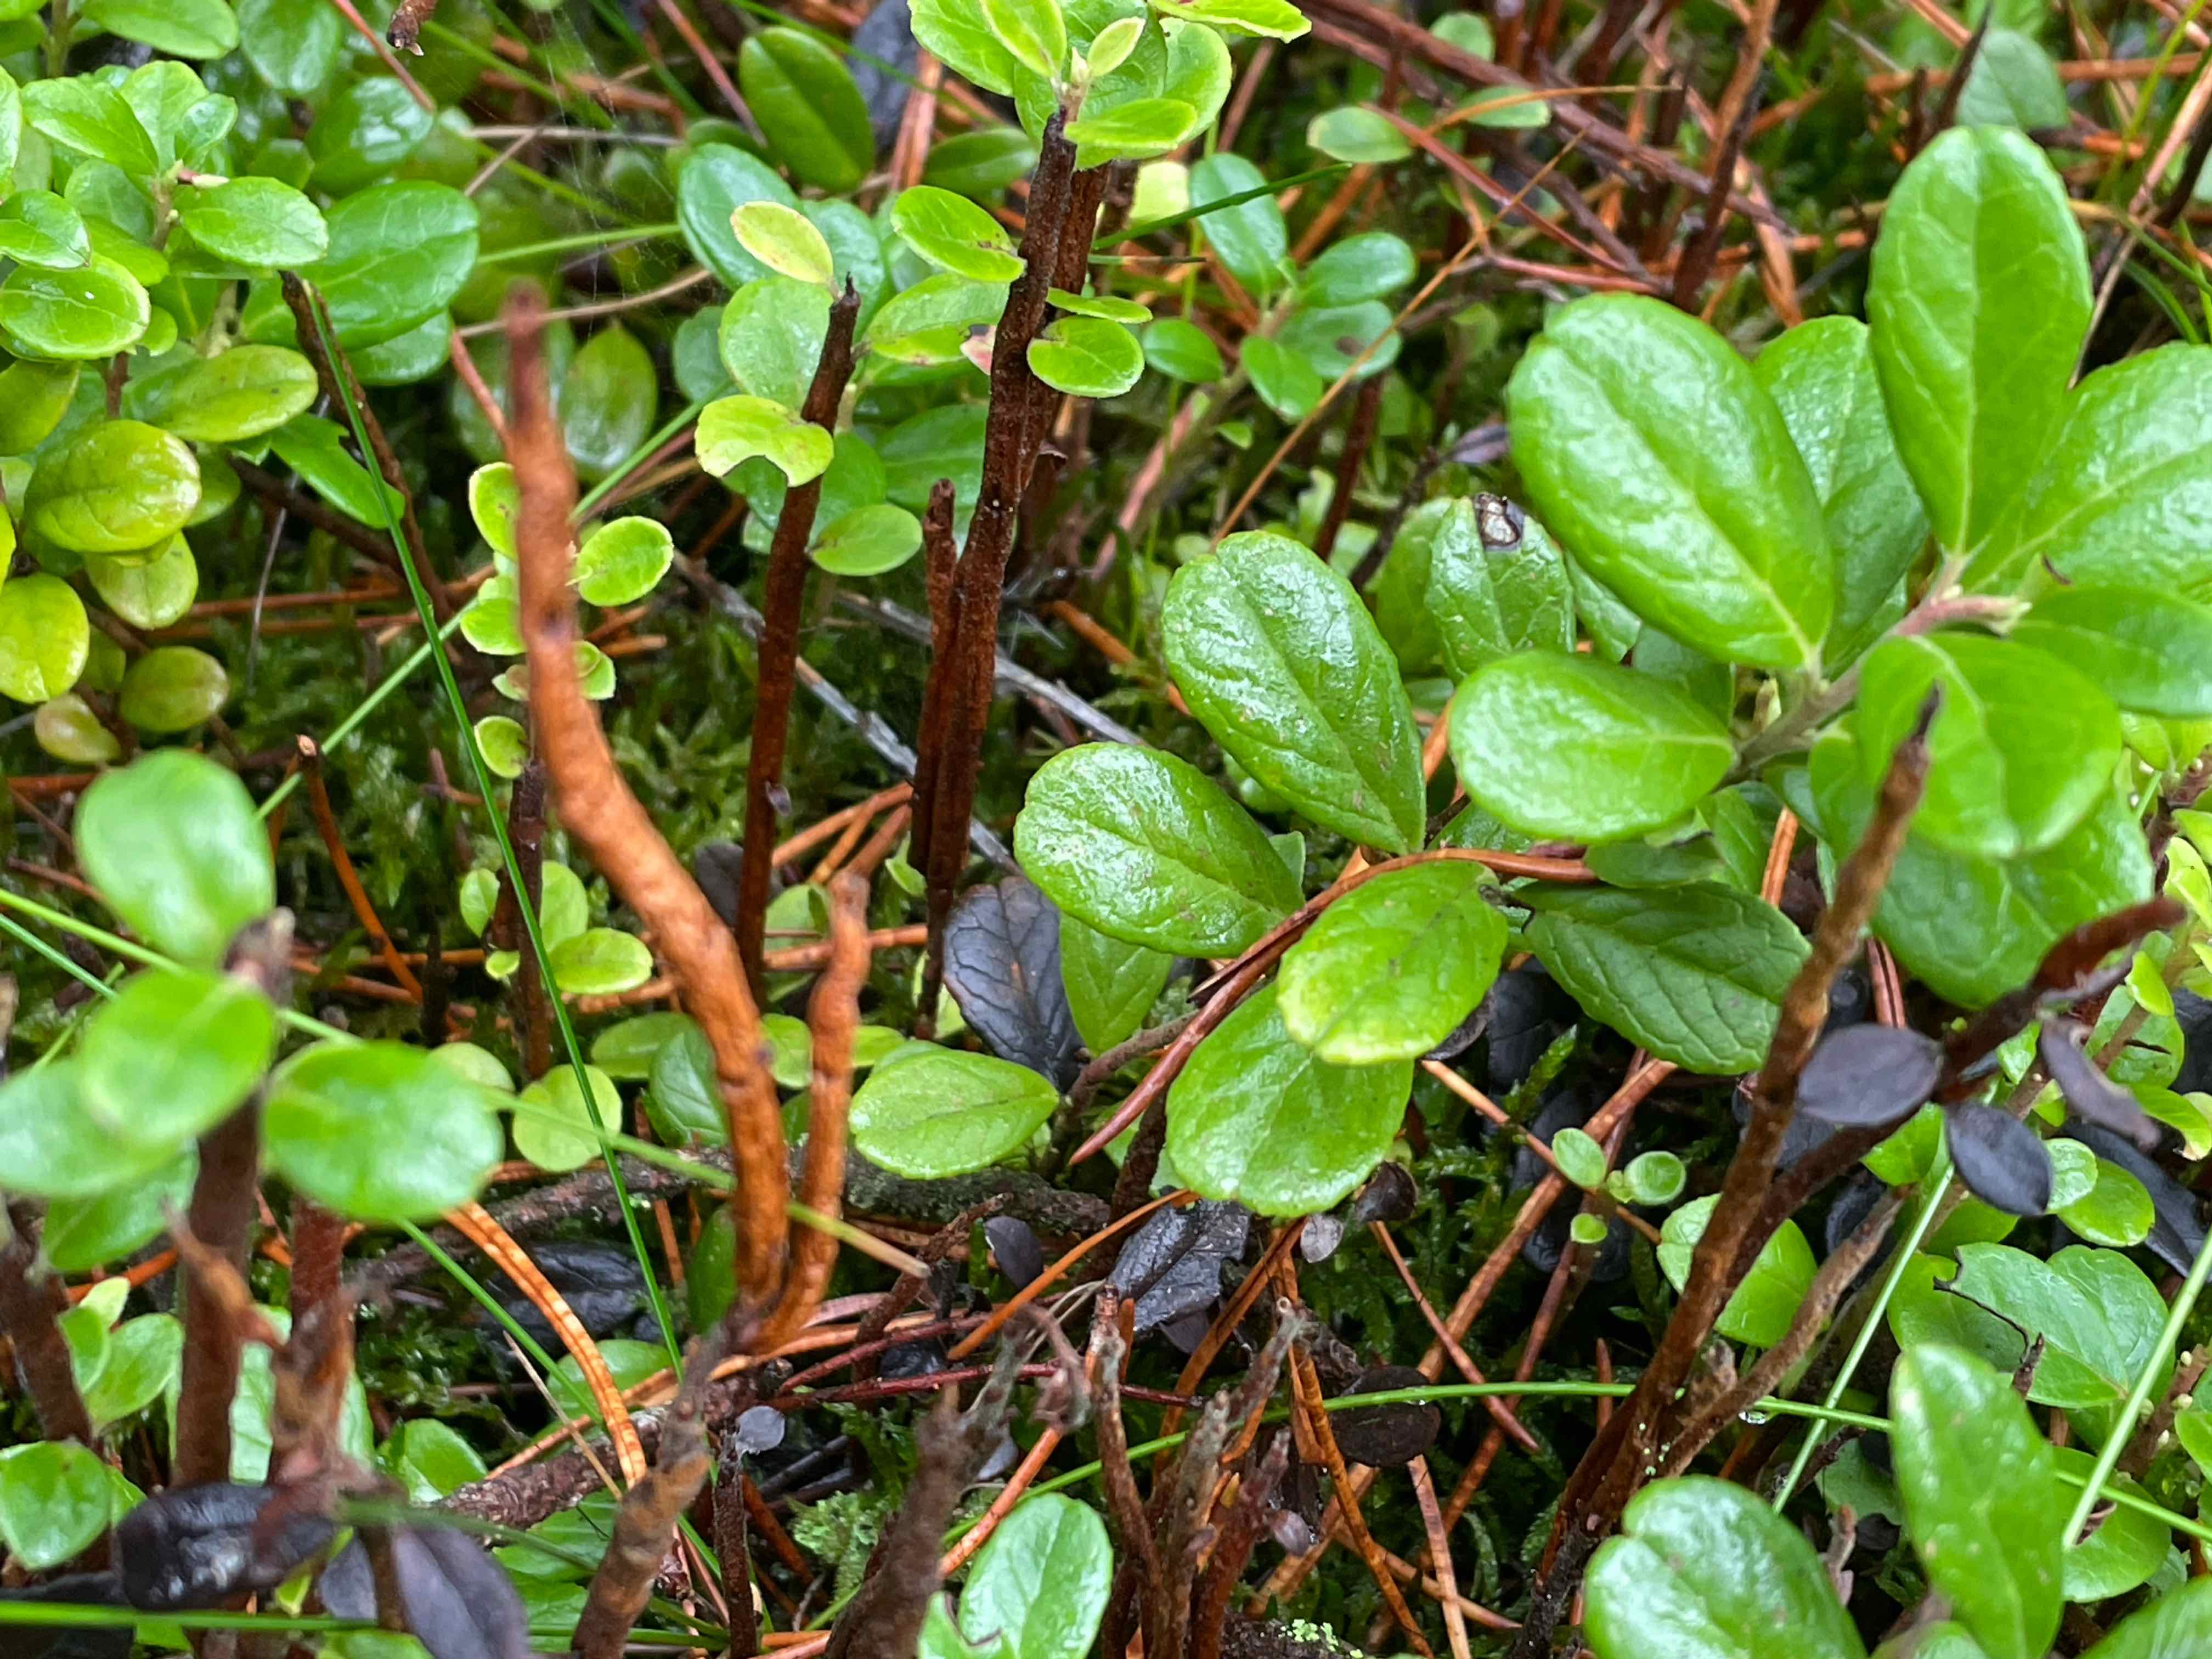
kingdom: Fungi
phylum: Basidiomycota
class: Pucciniomycetes
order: Pucciniales
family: Pucciniastraceae
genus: Calyptospora
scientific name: Calyptospora columnaris
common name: Huckleberry broom rust fungus
